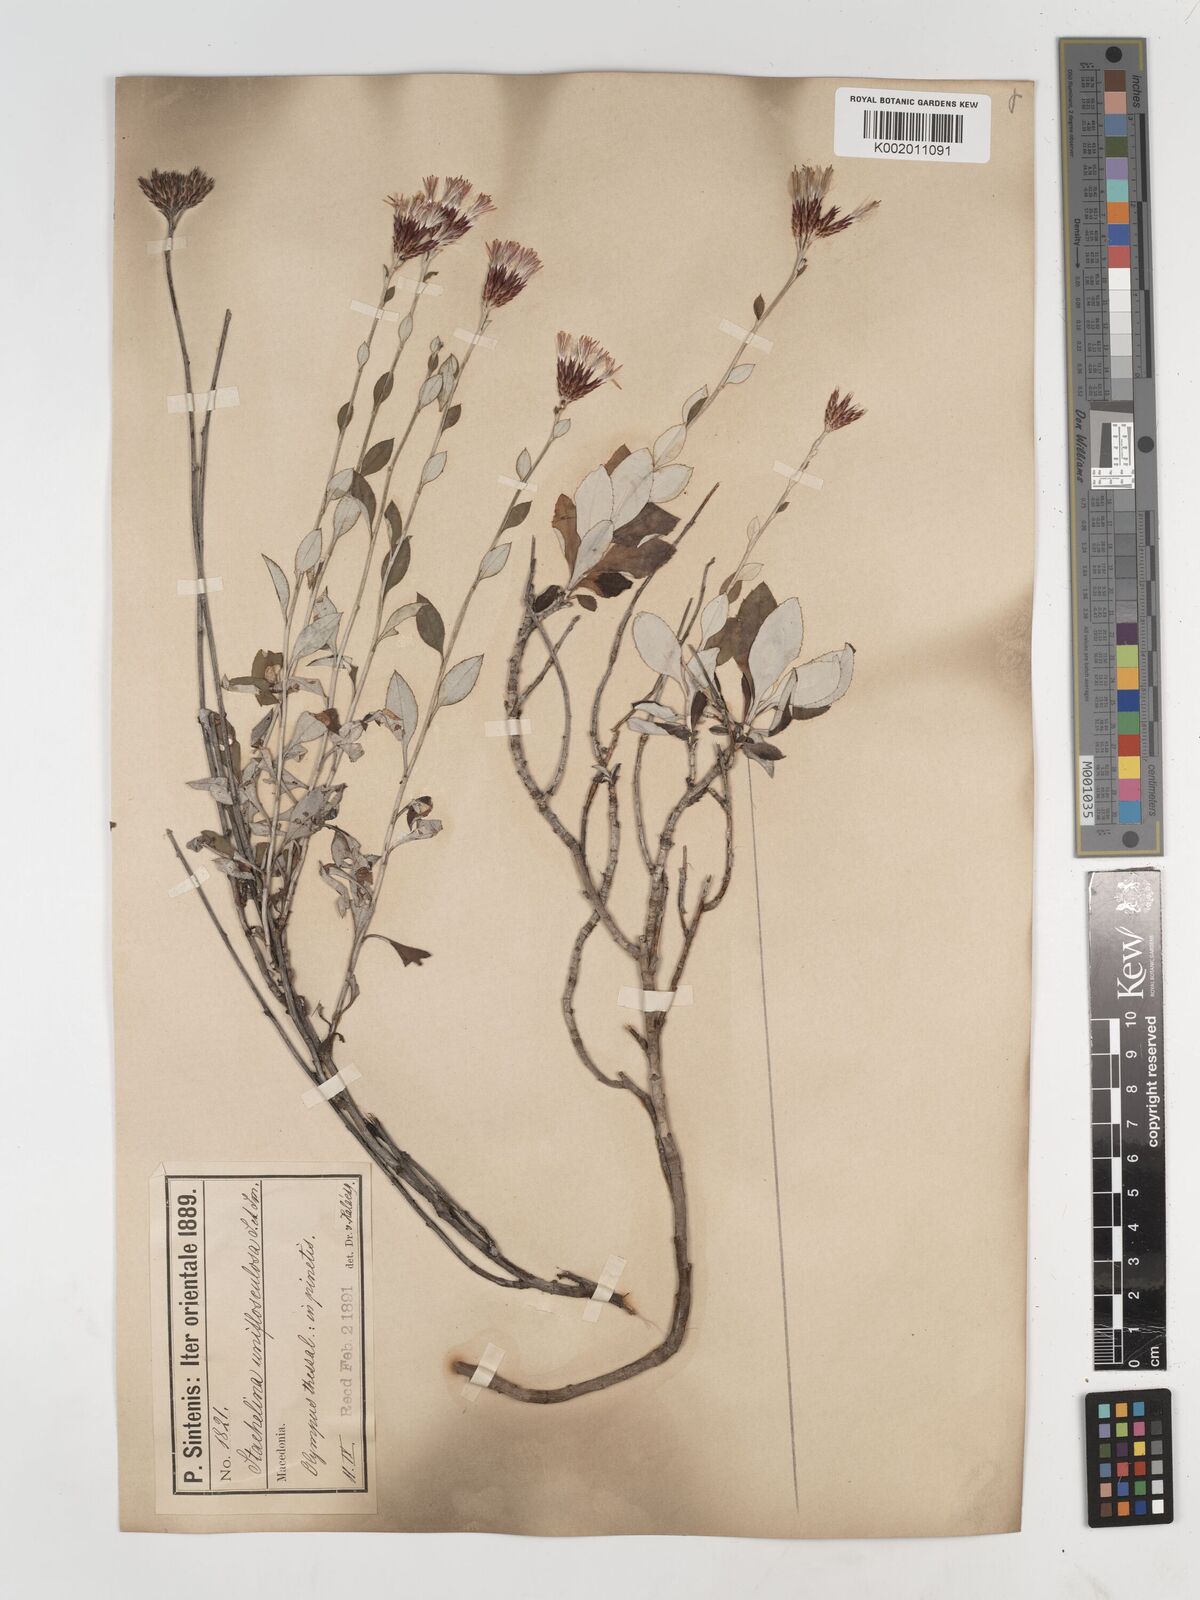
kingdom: Plantae
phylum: Tracheophyta
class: Magnoliopsida
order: Asterales
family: Asteraceae
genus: Staehelina
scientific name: Staehelina uniflosculosa
